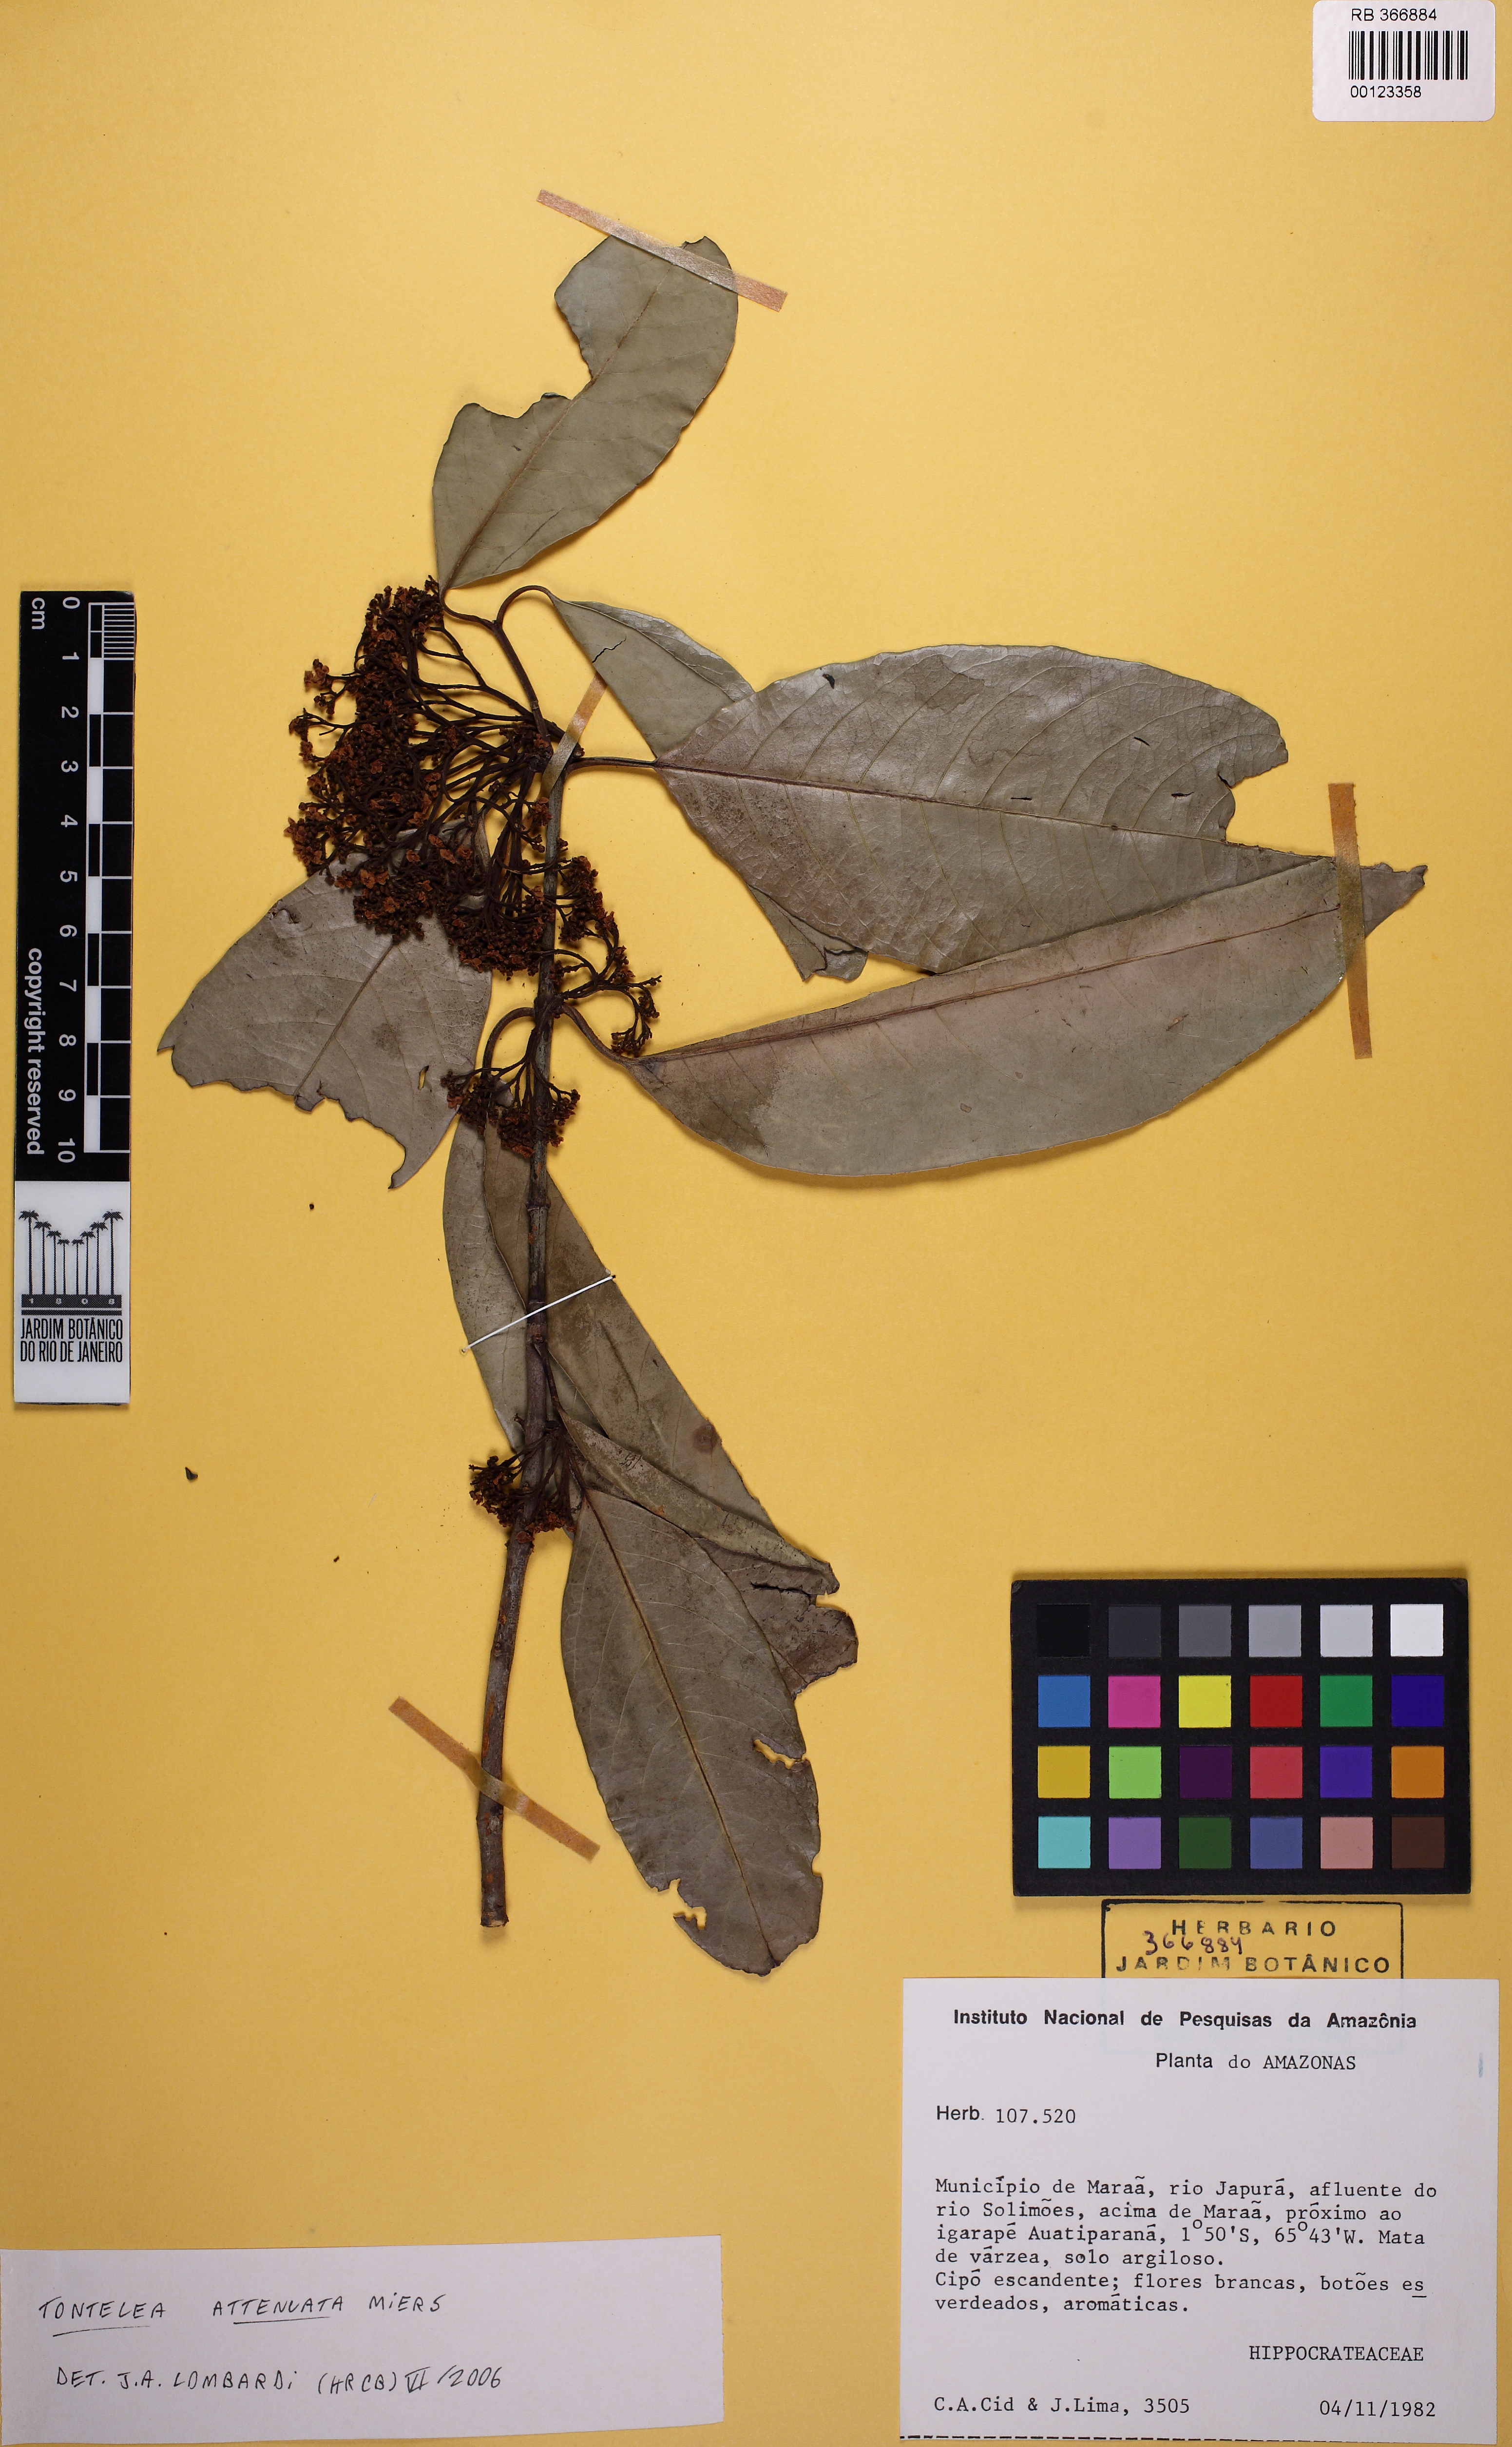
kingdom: Plantae
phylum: Tracheophyta
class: Magnoliopsida
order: Celastrales
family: Celastraceae
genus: Tontelea
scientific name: Tontelea attenuata
